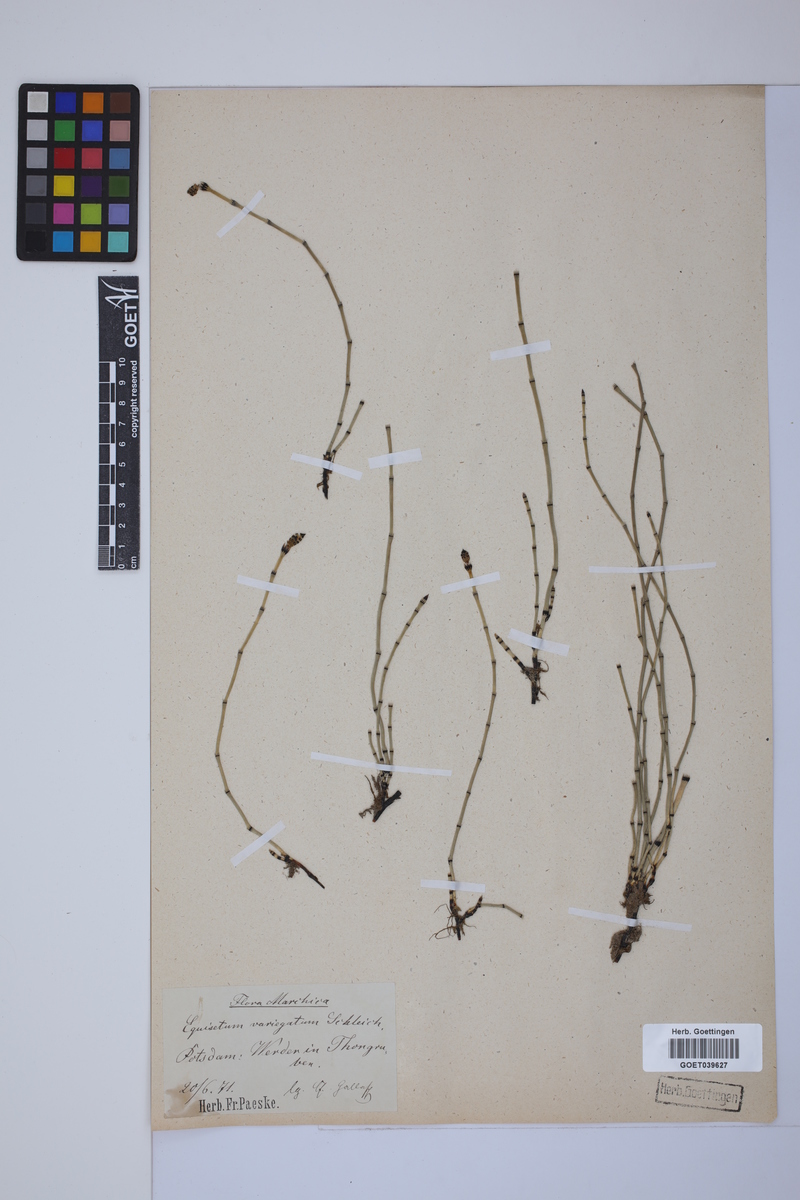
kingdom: Plantae
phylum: Tracheophyta
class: Polypodiopsida
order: Equisetales
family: Equisetaceae
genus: Equisetum
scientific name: Equisetum variegatum
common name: Variegated horsetail
